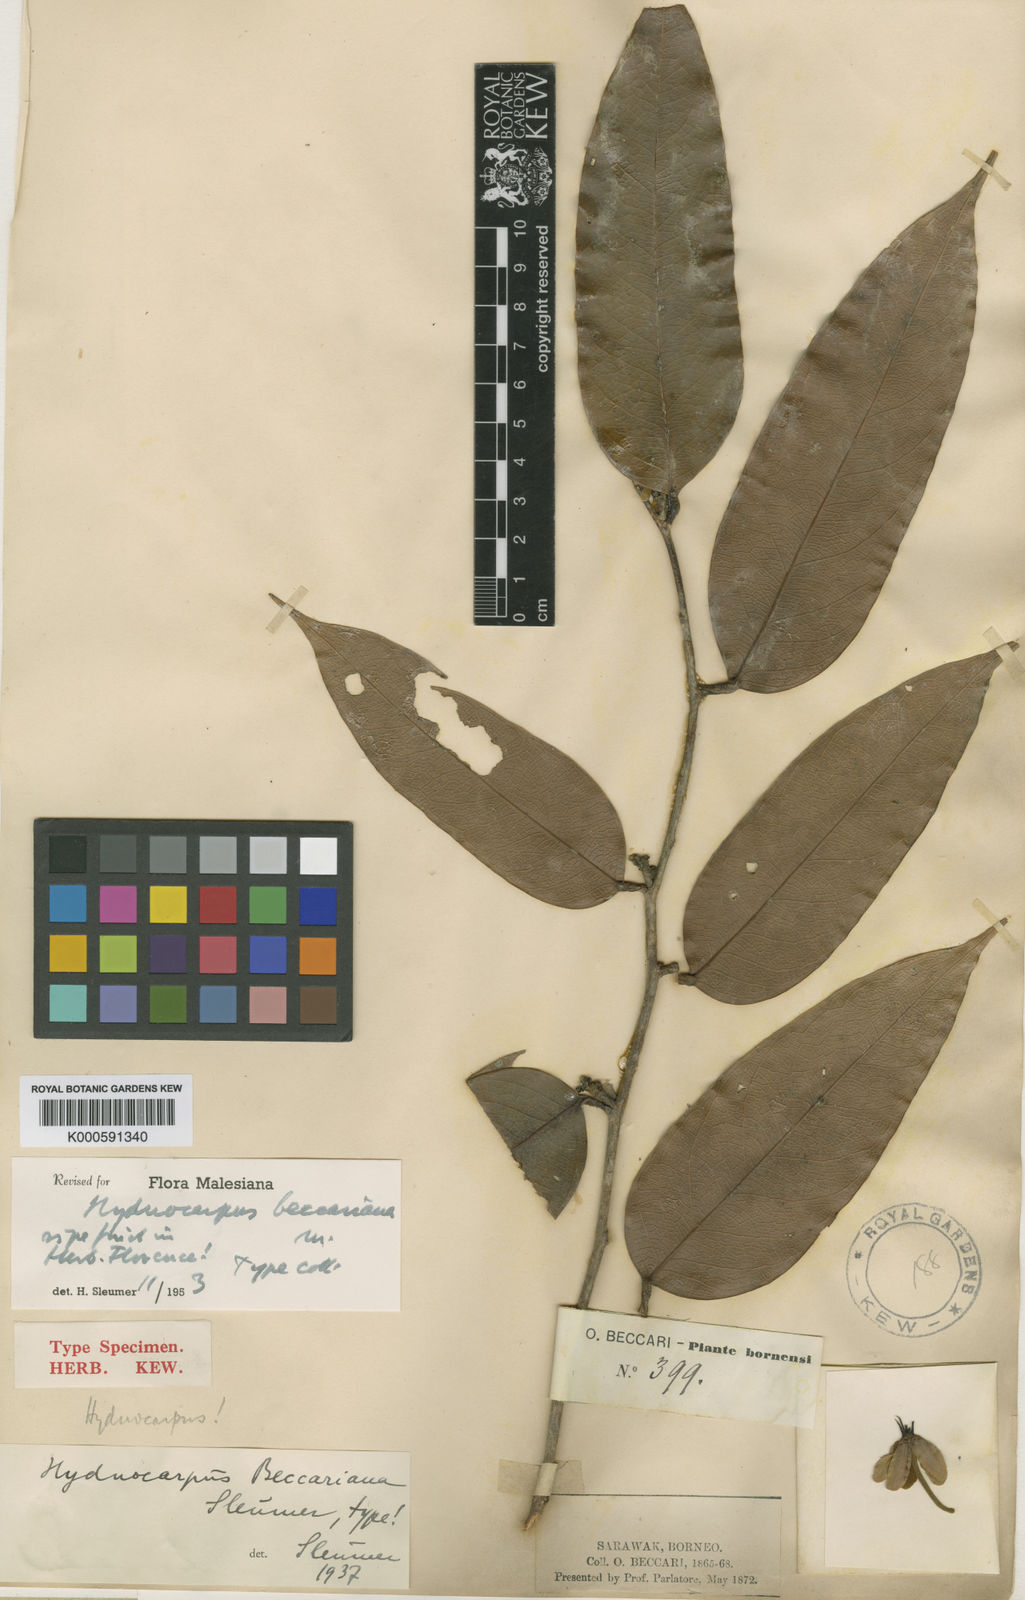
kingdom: Plantae
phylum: Tracheophyta
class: Magnoliopsida
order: Malpighiales
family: Achariaceae
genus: Hydnocarpus
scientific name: Hydnocarpus beccarianus
